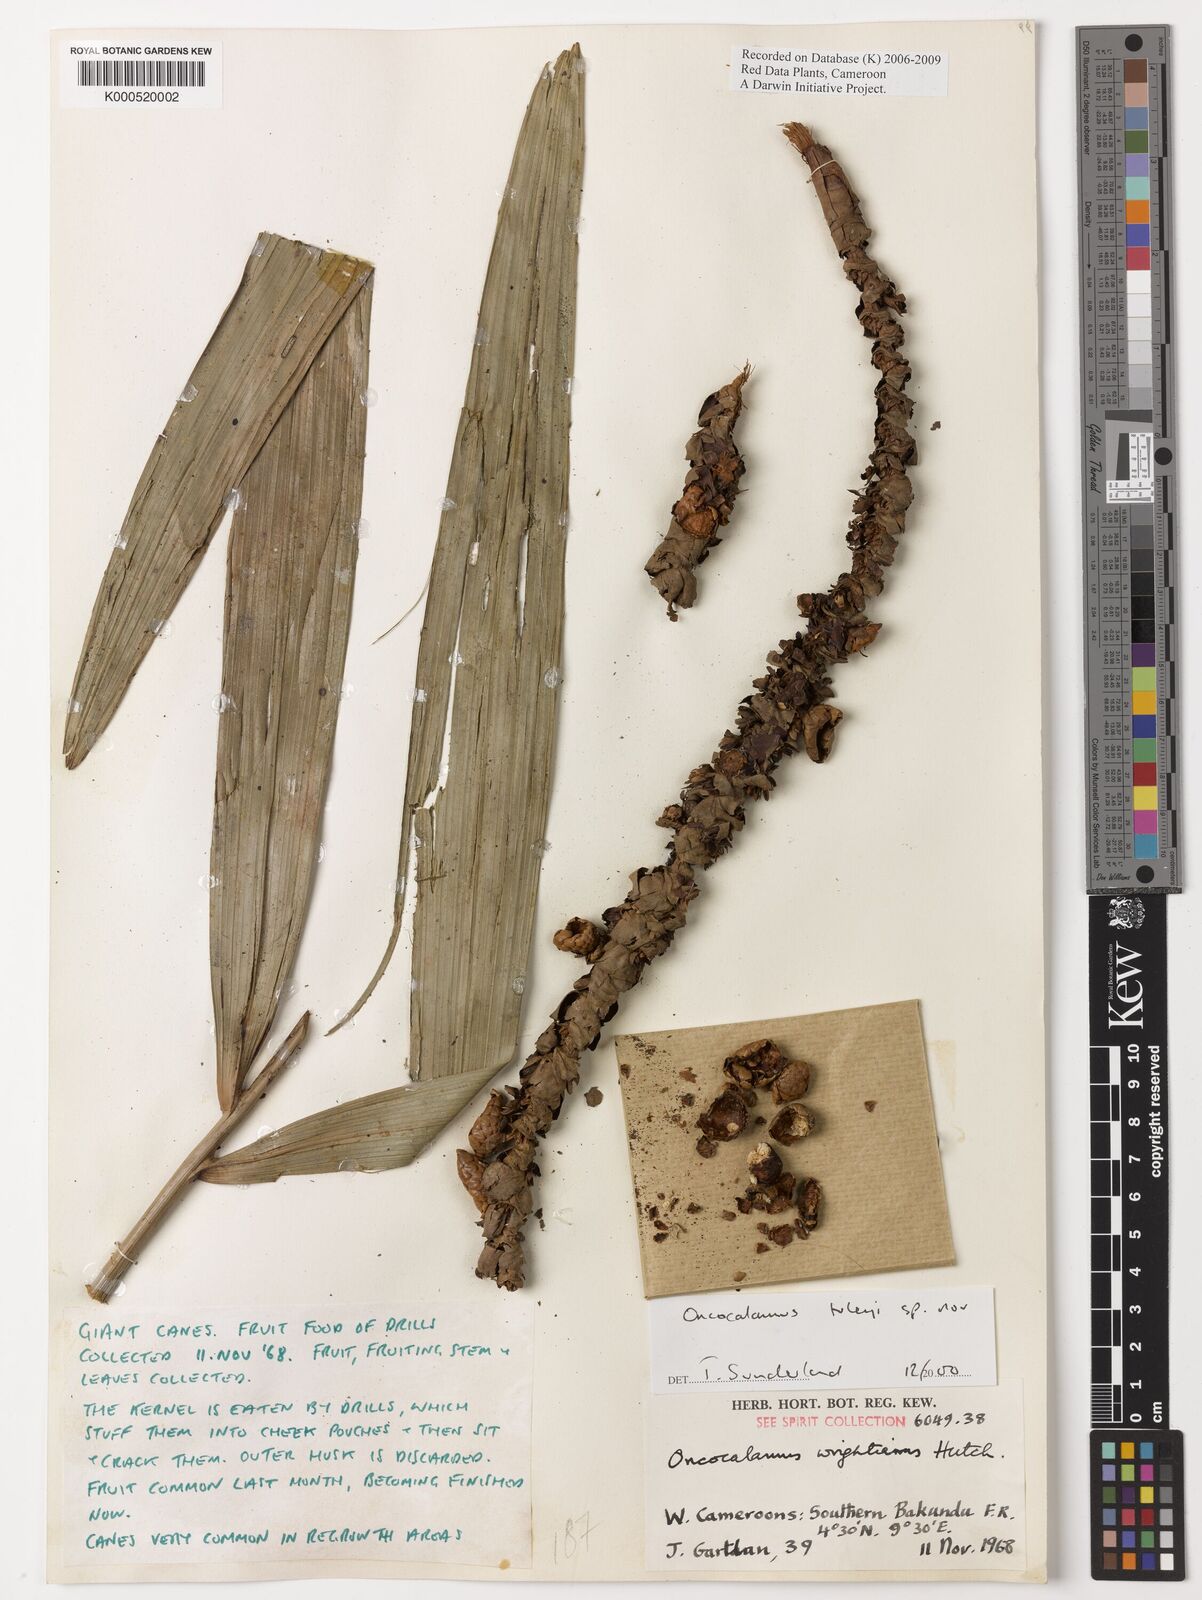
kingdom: Plantae
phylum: Tracheophyta
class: Liliopsida
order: Arecales
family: Arecaceae
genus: Oncocalamus
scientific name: Oncocalamus tuleyi
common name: Rattan
